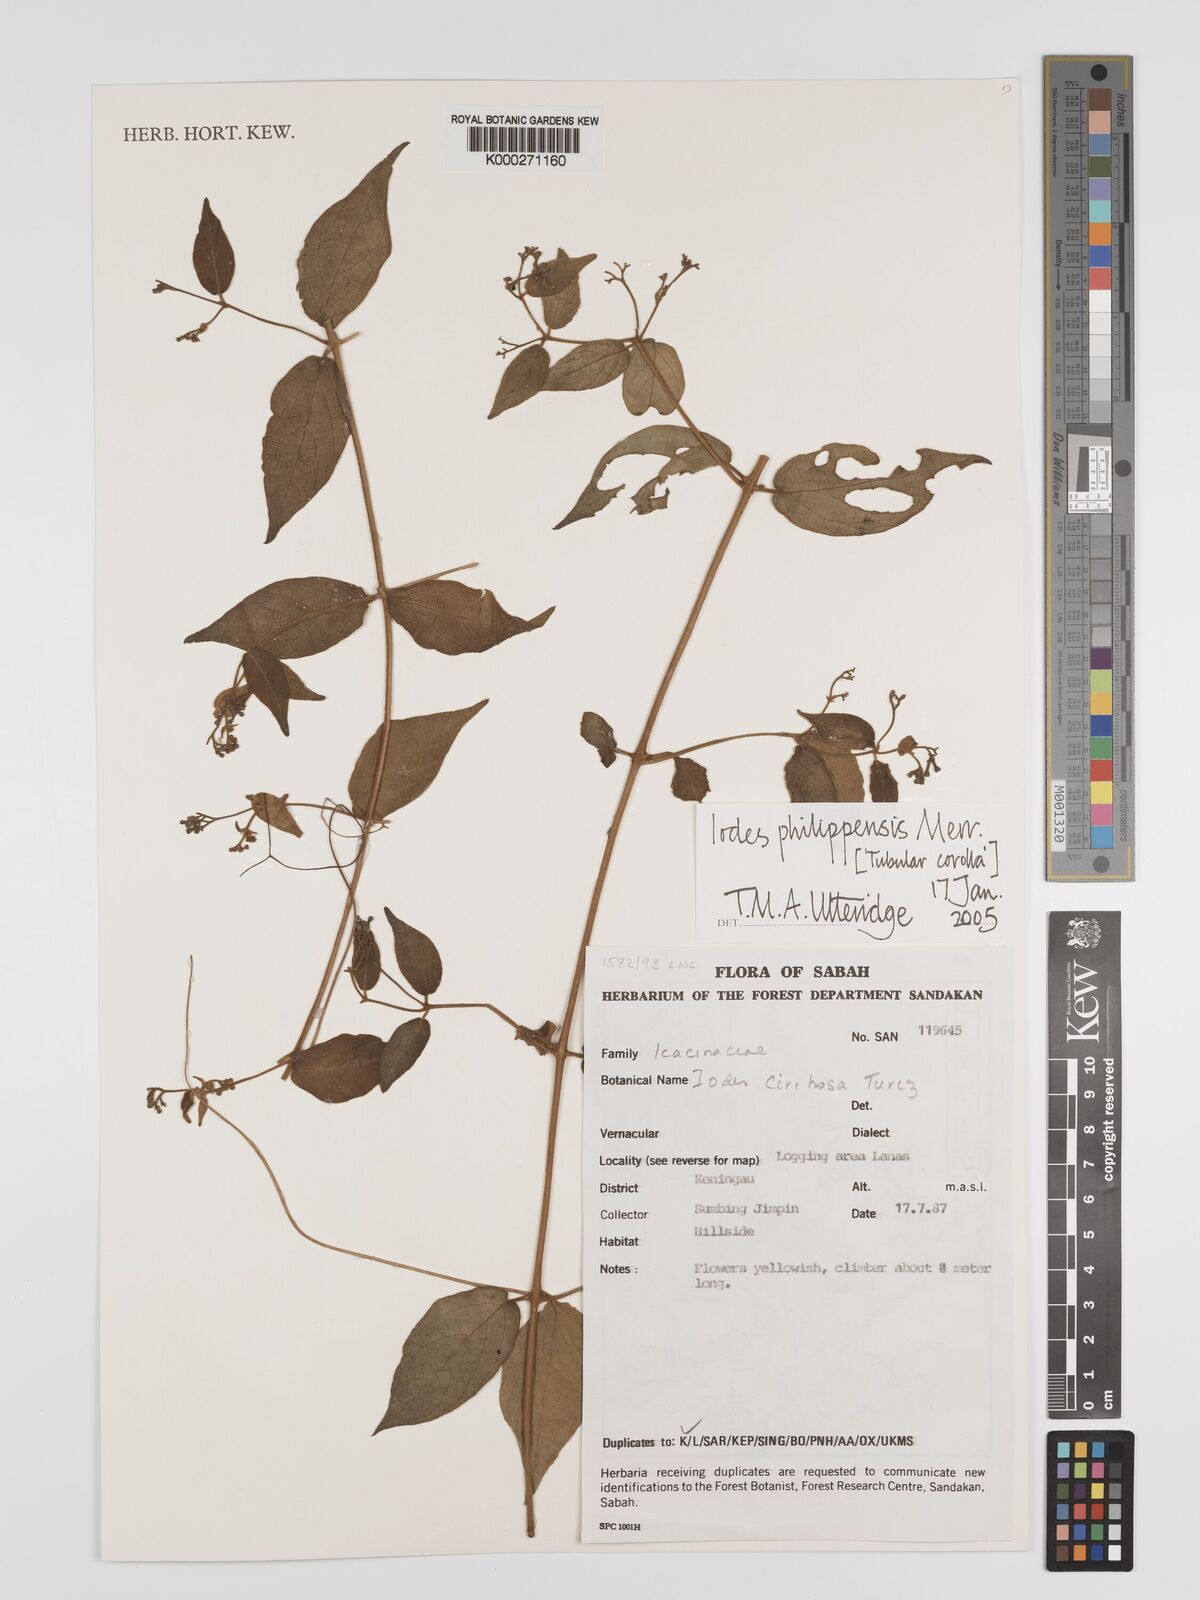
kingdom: Plantae
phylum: Tracheophyta
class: Magnoliopsida
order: Icacinales
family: Icacinaceae
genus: Iodes
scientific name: Iodes philippinensis
